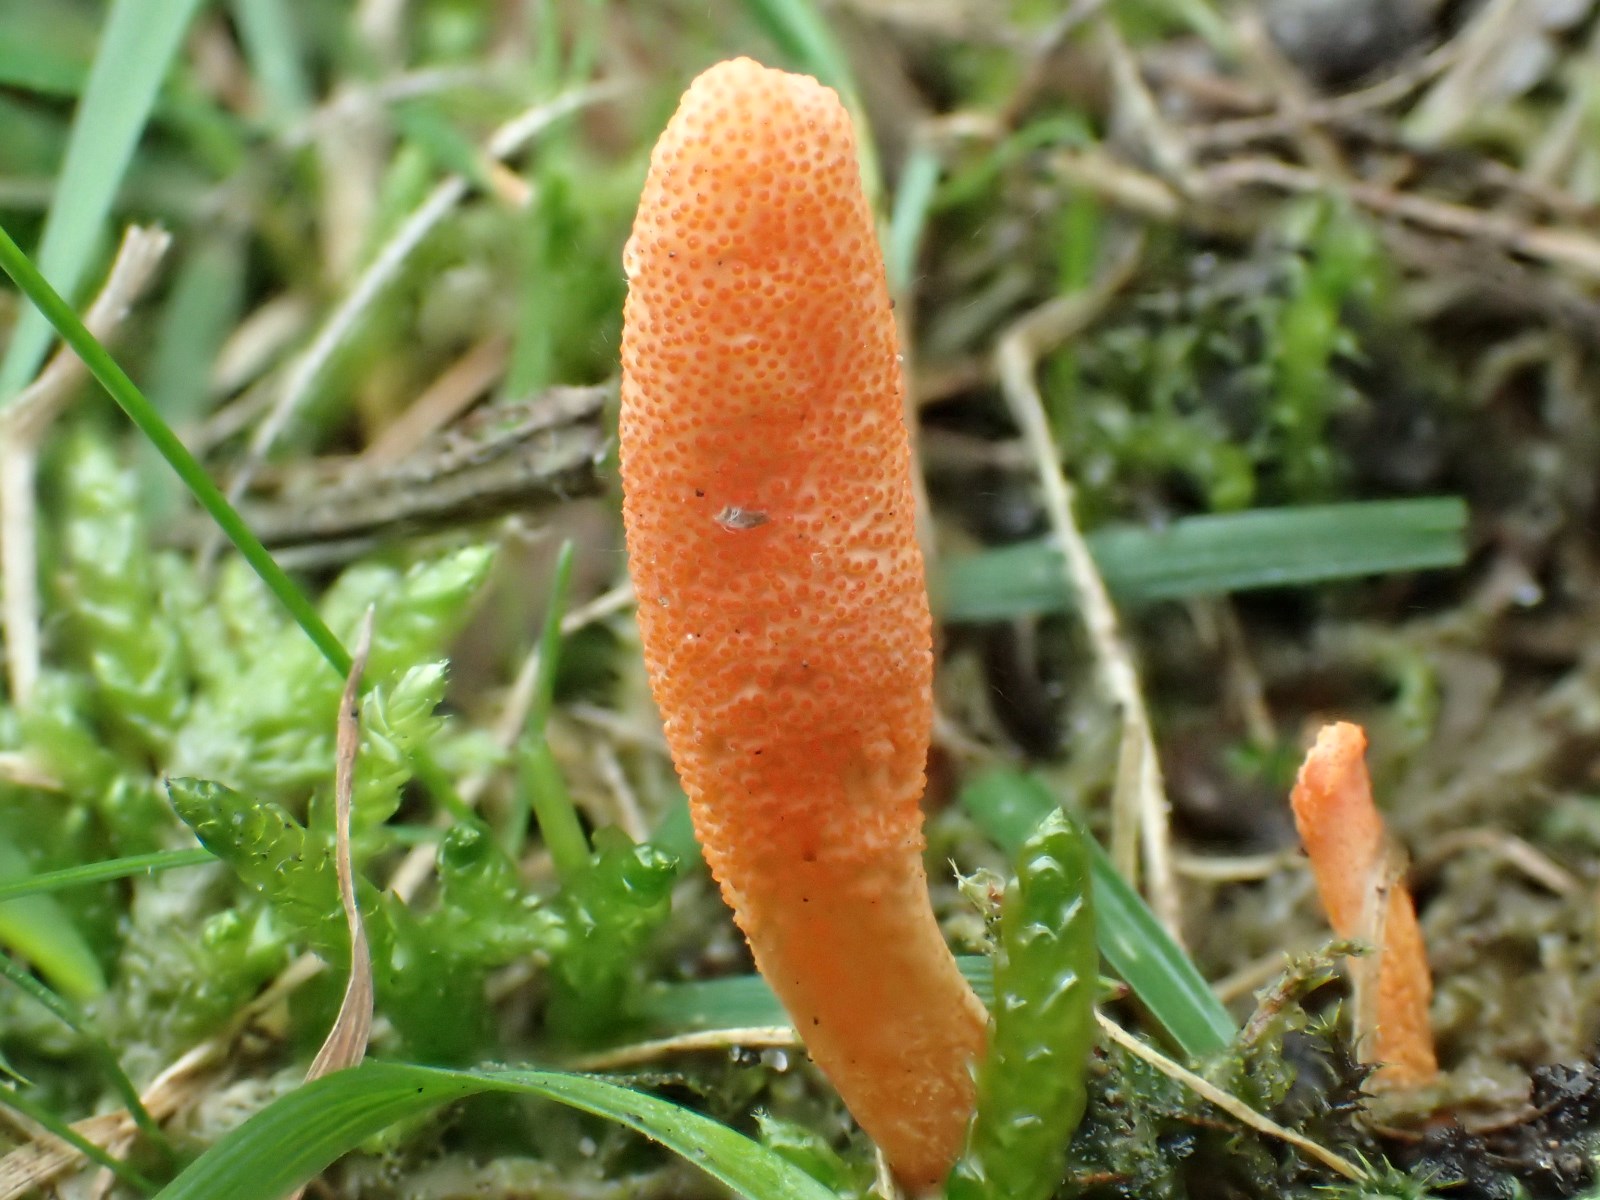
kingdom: Fungi
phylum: Ascomycota
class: Sordariomycetes
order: Hypocreales
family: Cordycipitaceae
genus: Cordyceps
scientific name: Cordyceps militaris
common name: puppe-snyltekølle
